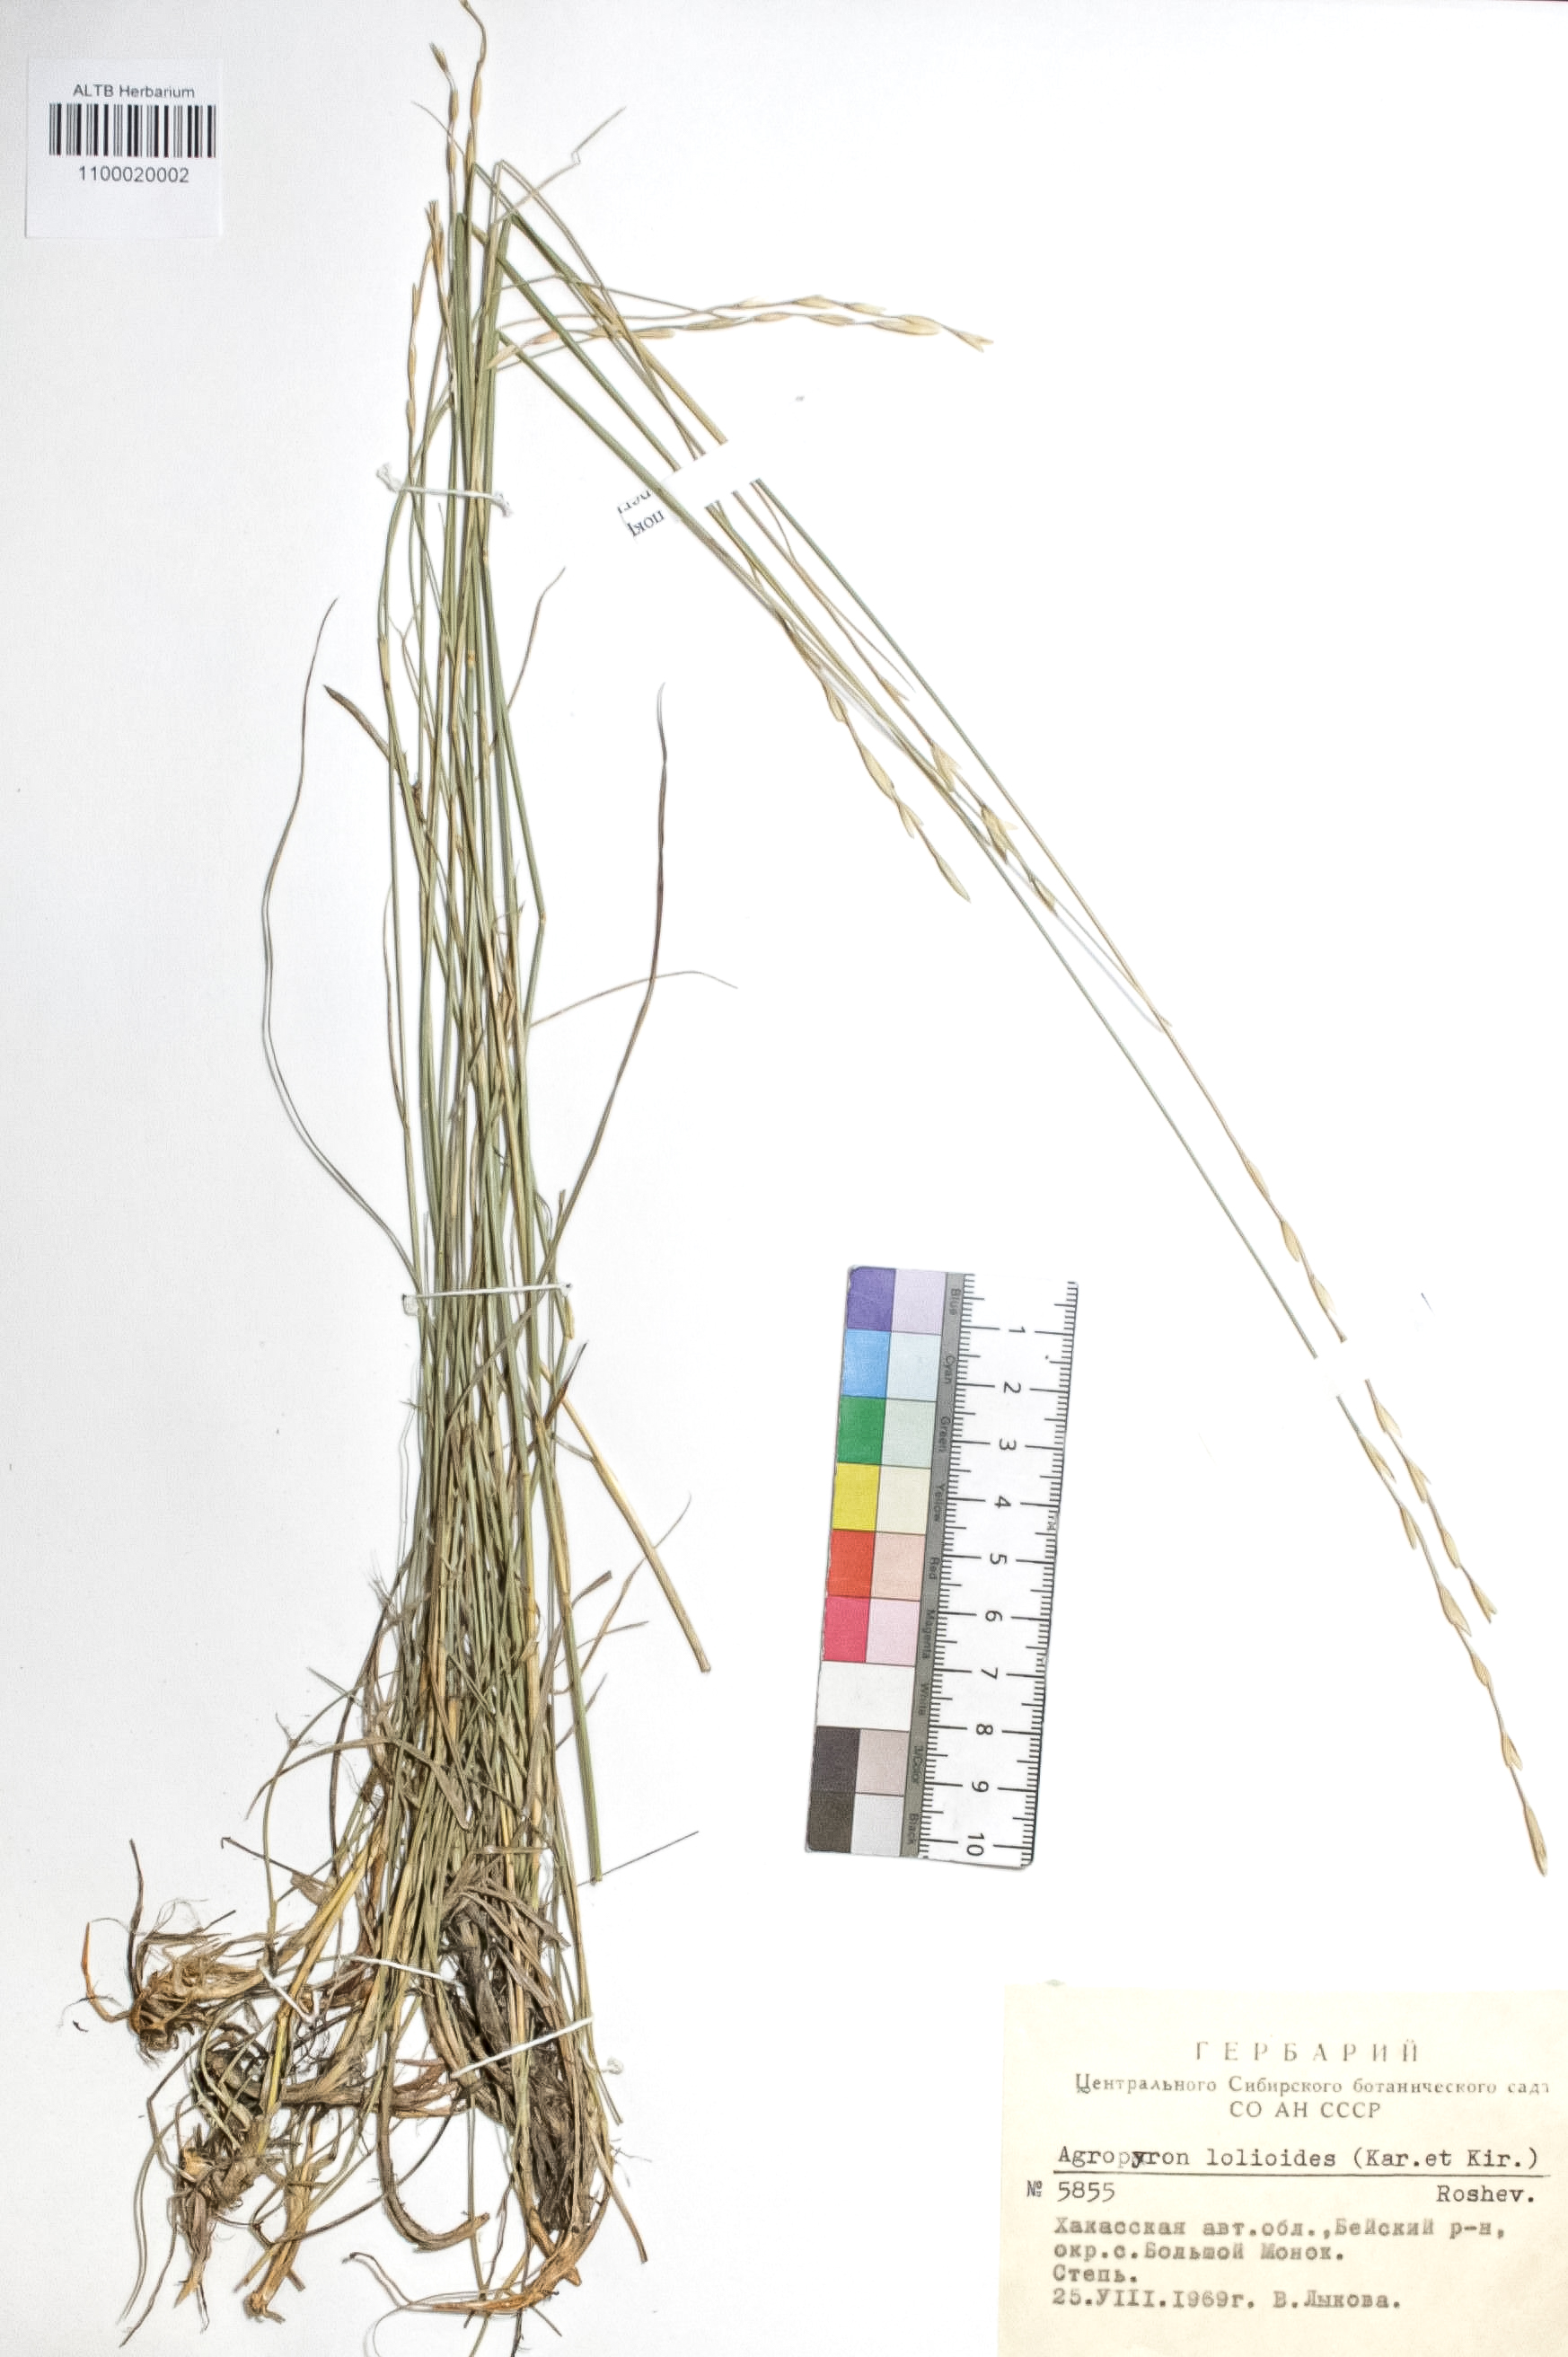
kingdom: Plantae
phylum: Tracheophyta
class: Liliopsida
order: Poales
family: Poaceae
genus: Agropyron
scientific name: Agropyron lolioides
